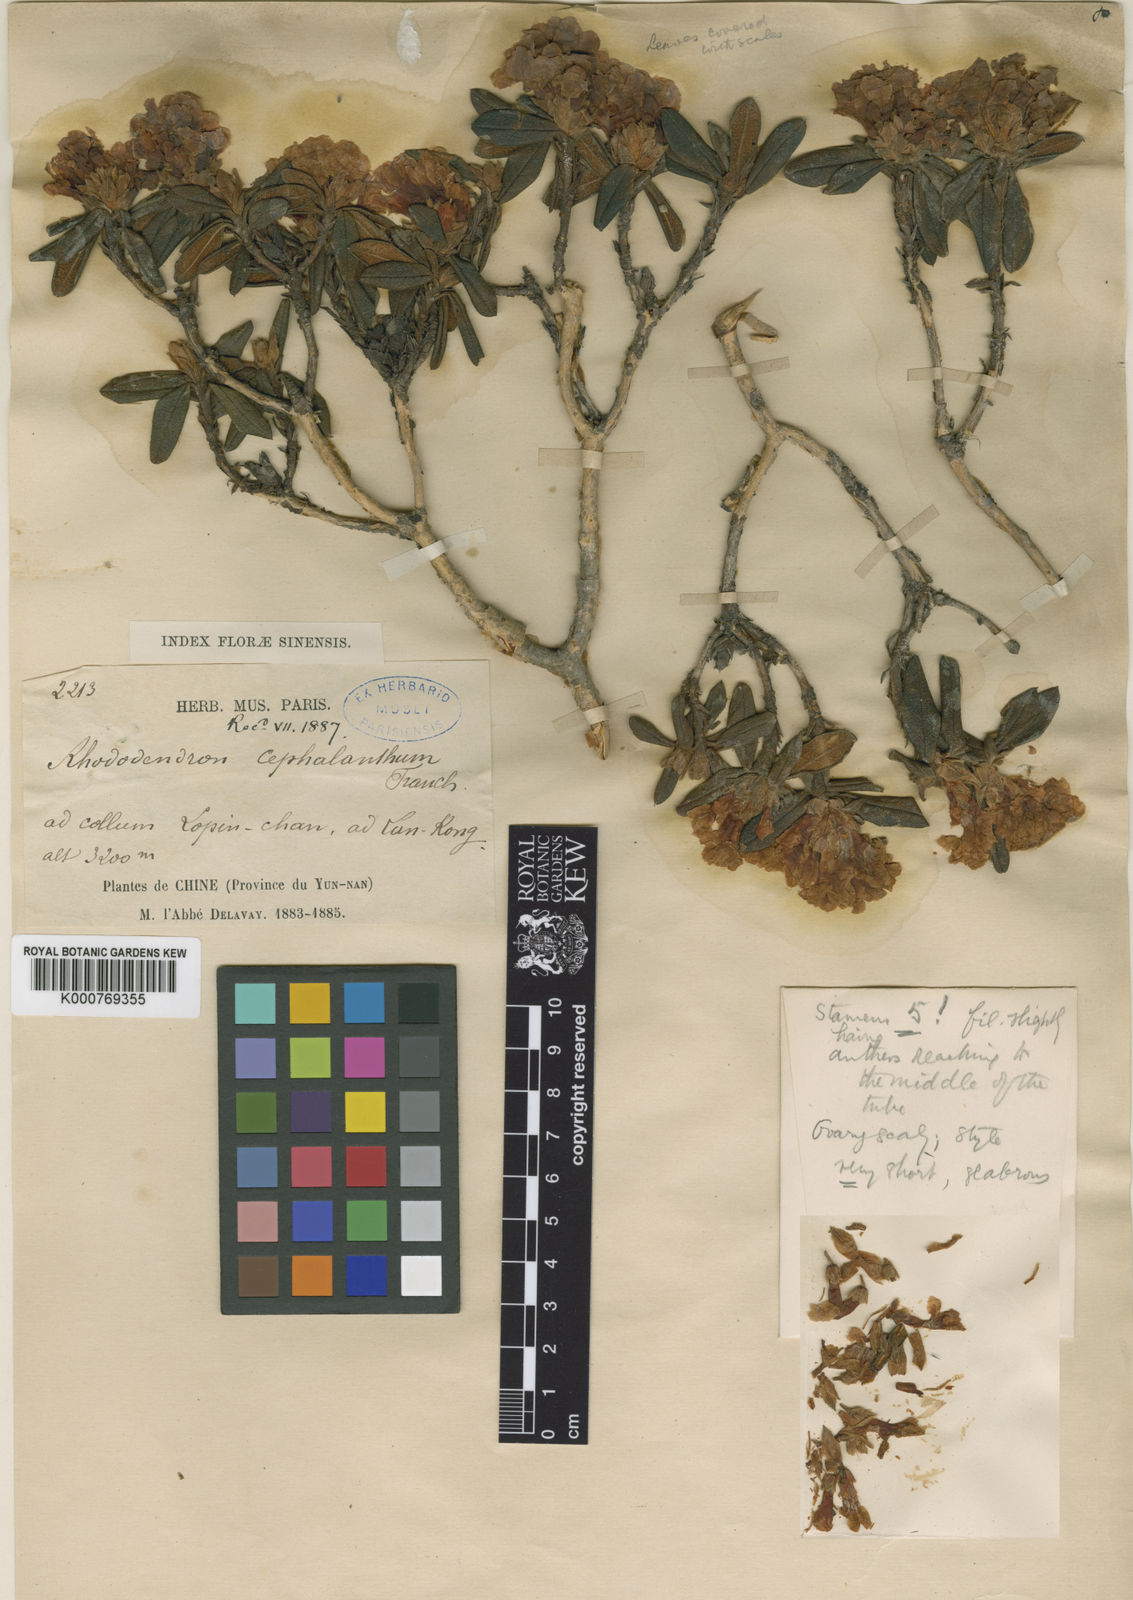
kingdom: Plantae
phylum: Tracheophyta
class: Magnoliopsida
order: Ericales
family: Ericaceae
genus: Rhododendron
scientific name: Rhododendron cephalanthum
